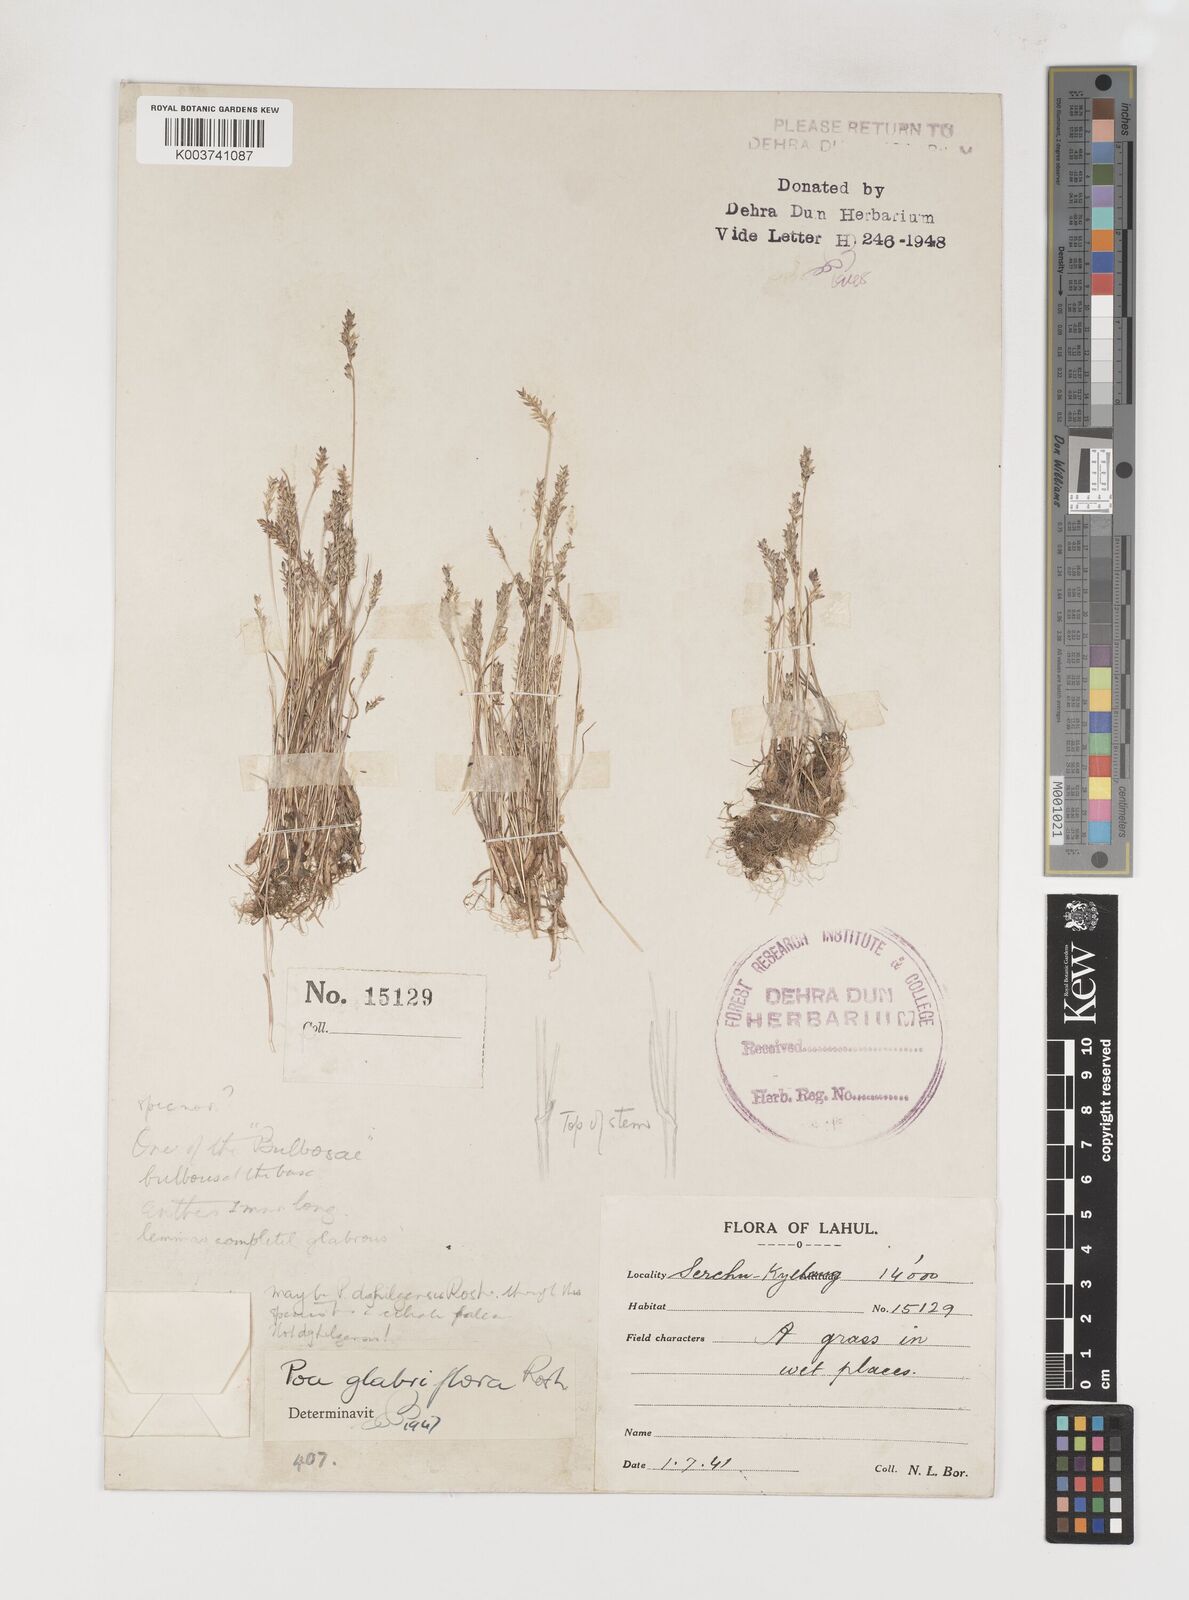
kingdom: Plantae
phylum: Tracheophyta
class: Liliopsida
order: Poales
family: Poaceae
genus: Poa
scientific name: Poa bactriana
